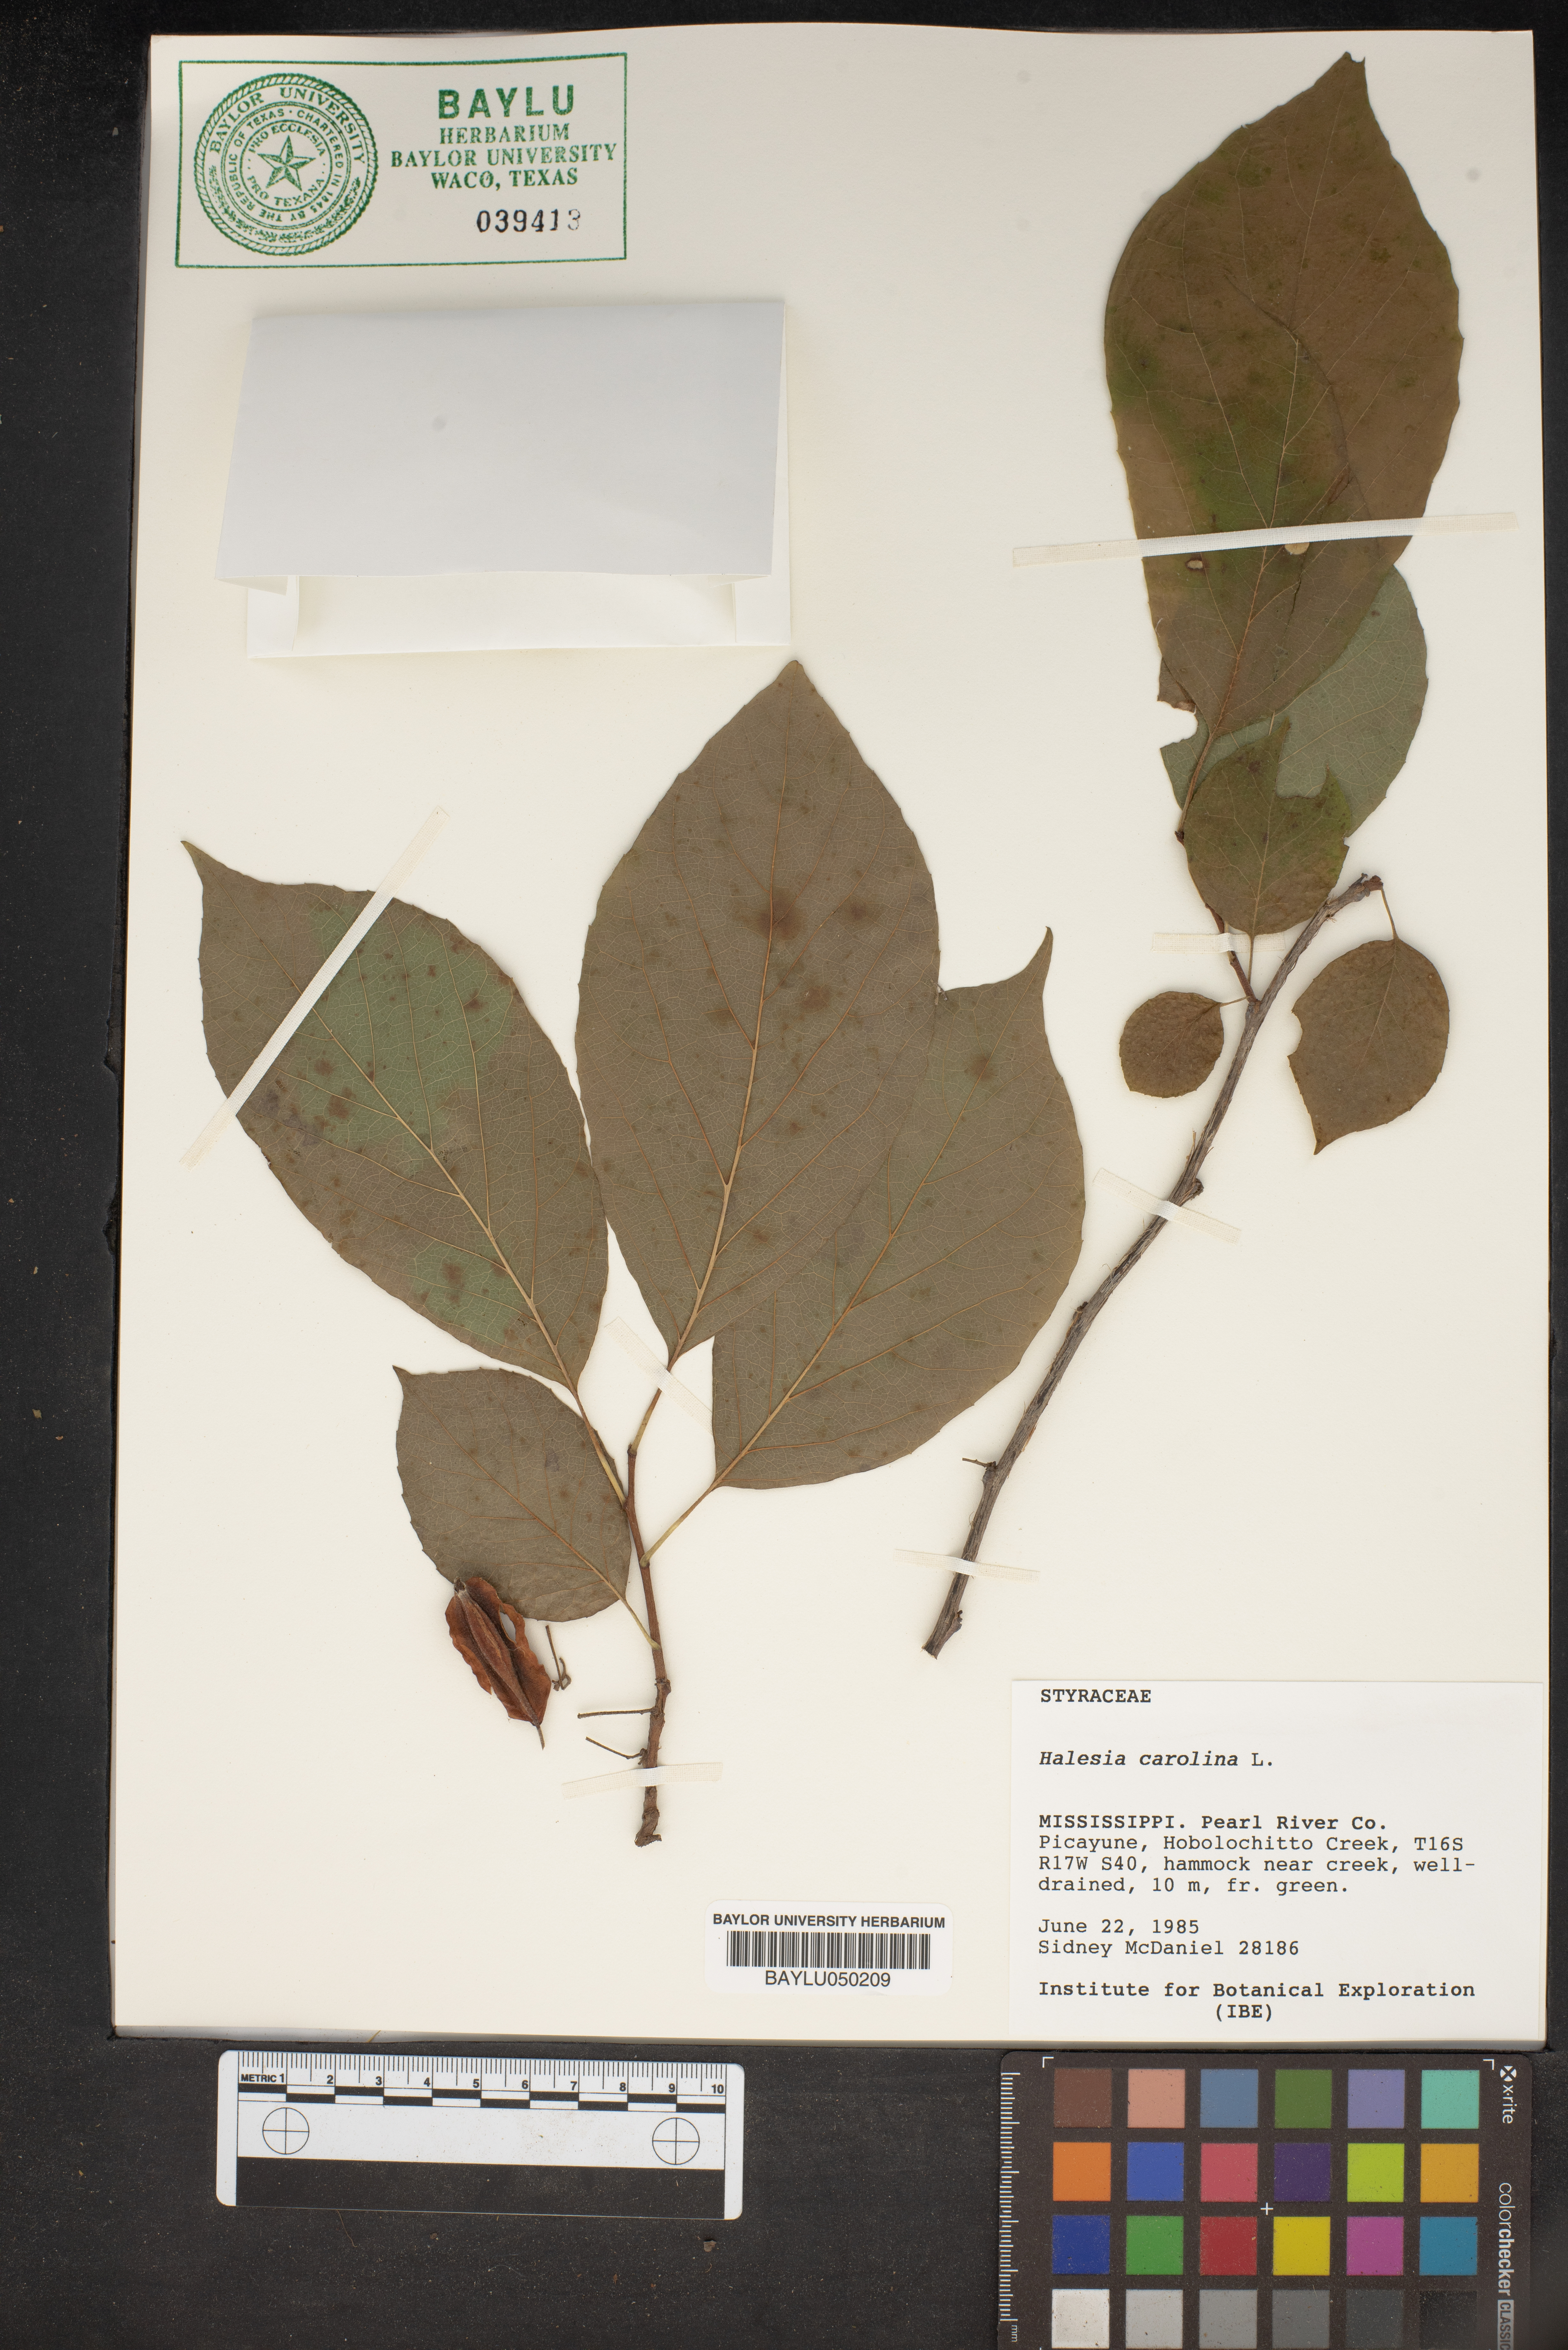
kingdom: Plantae
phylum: Tracheophyta
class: Magnoliopsida
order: Ericales
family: Styracaceae
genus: Halesia
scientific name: Halesia carolina
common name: Carolina silverbell
